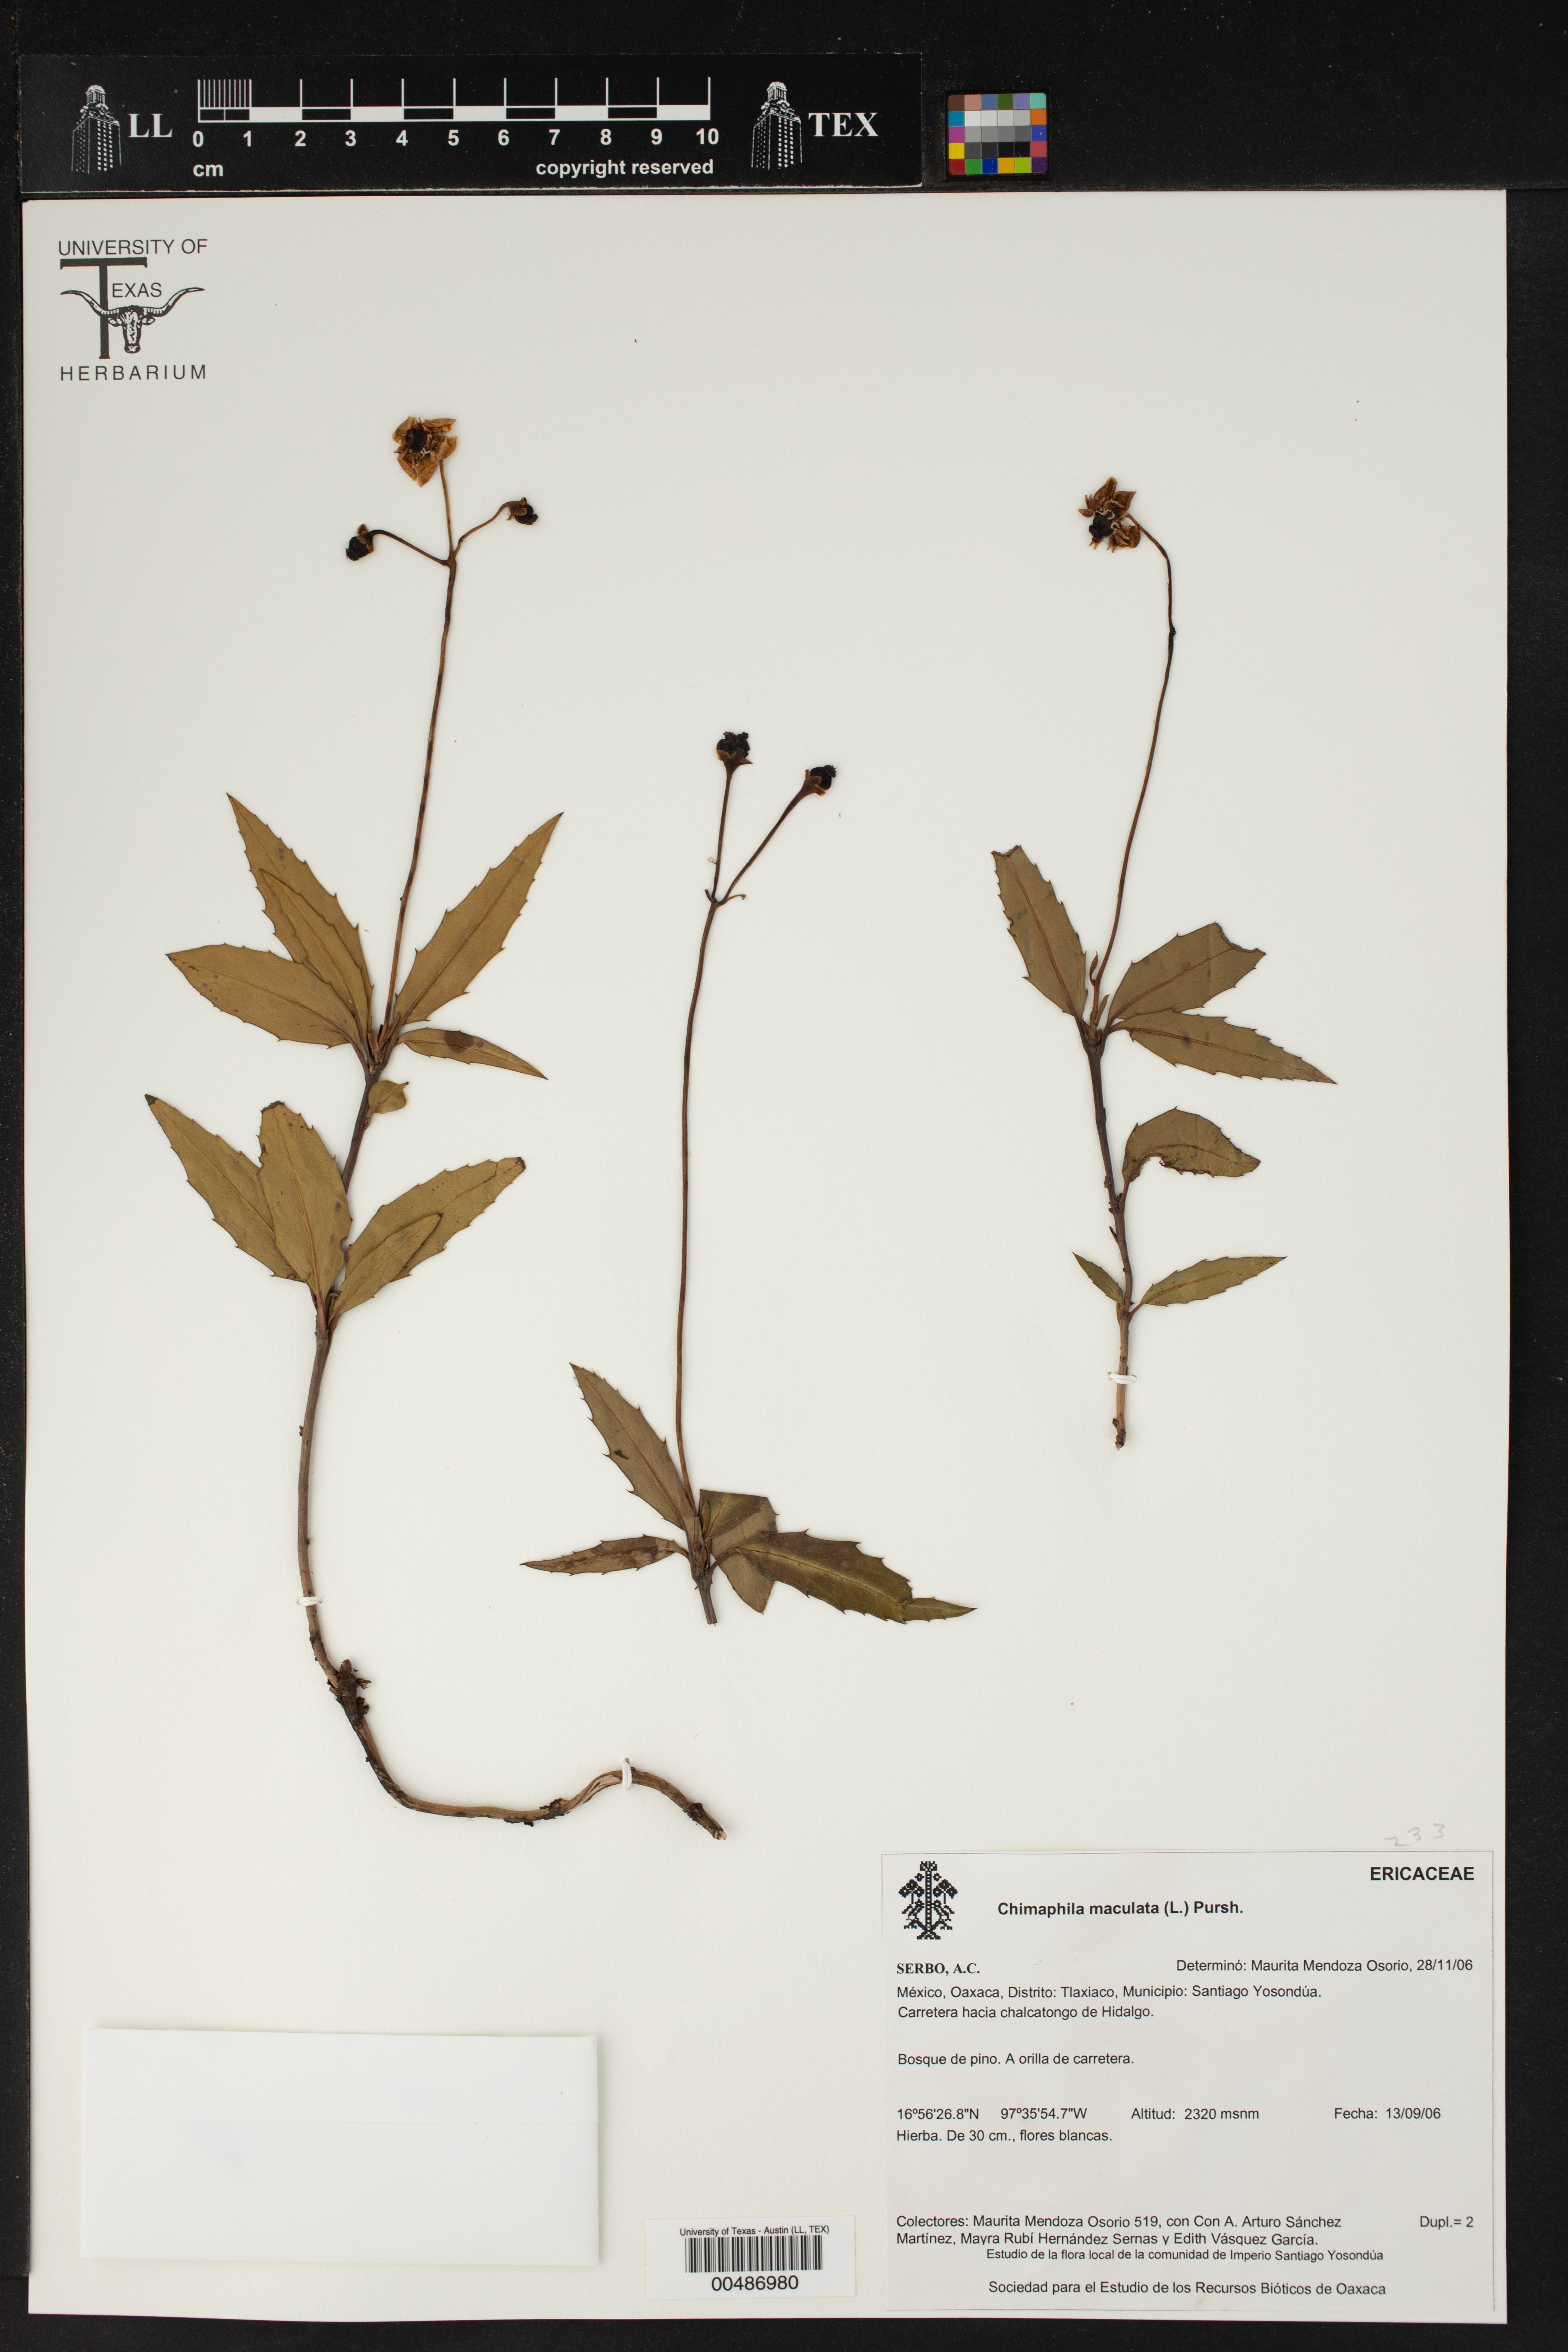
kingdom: Plantae
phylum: Tracheophyta
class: Magnoliopsida
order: Ericales
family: Ericaceae
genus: Chimaphila
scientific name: Chimaphila maculata
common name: Spotted pipsissewa
